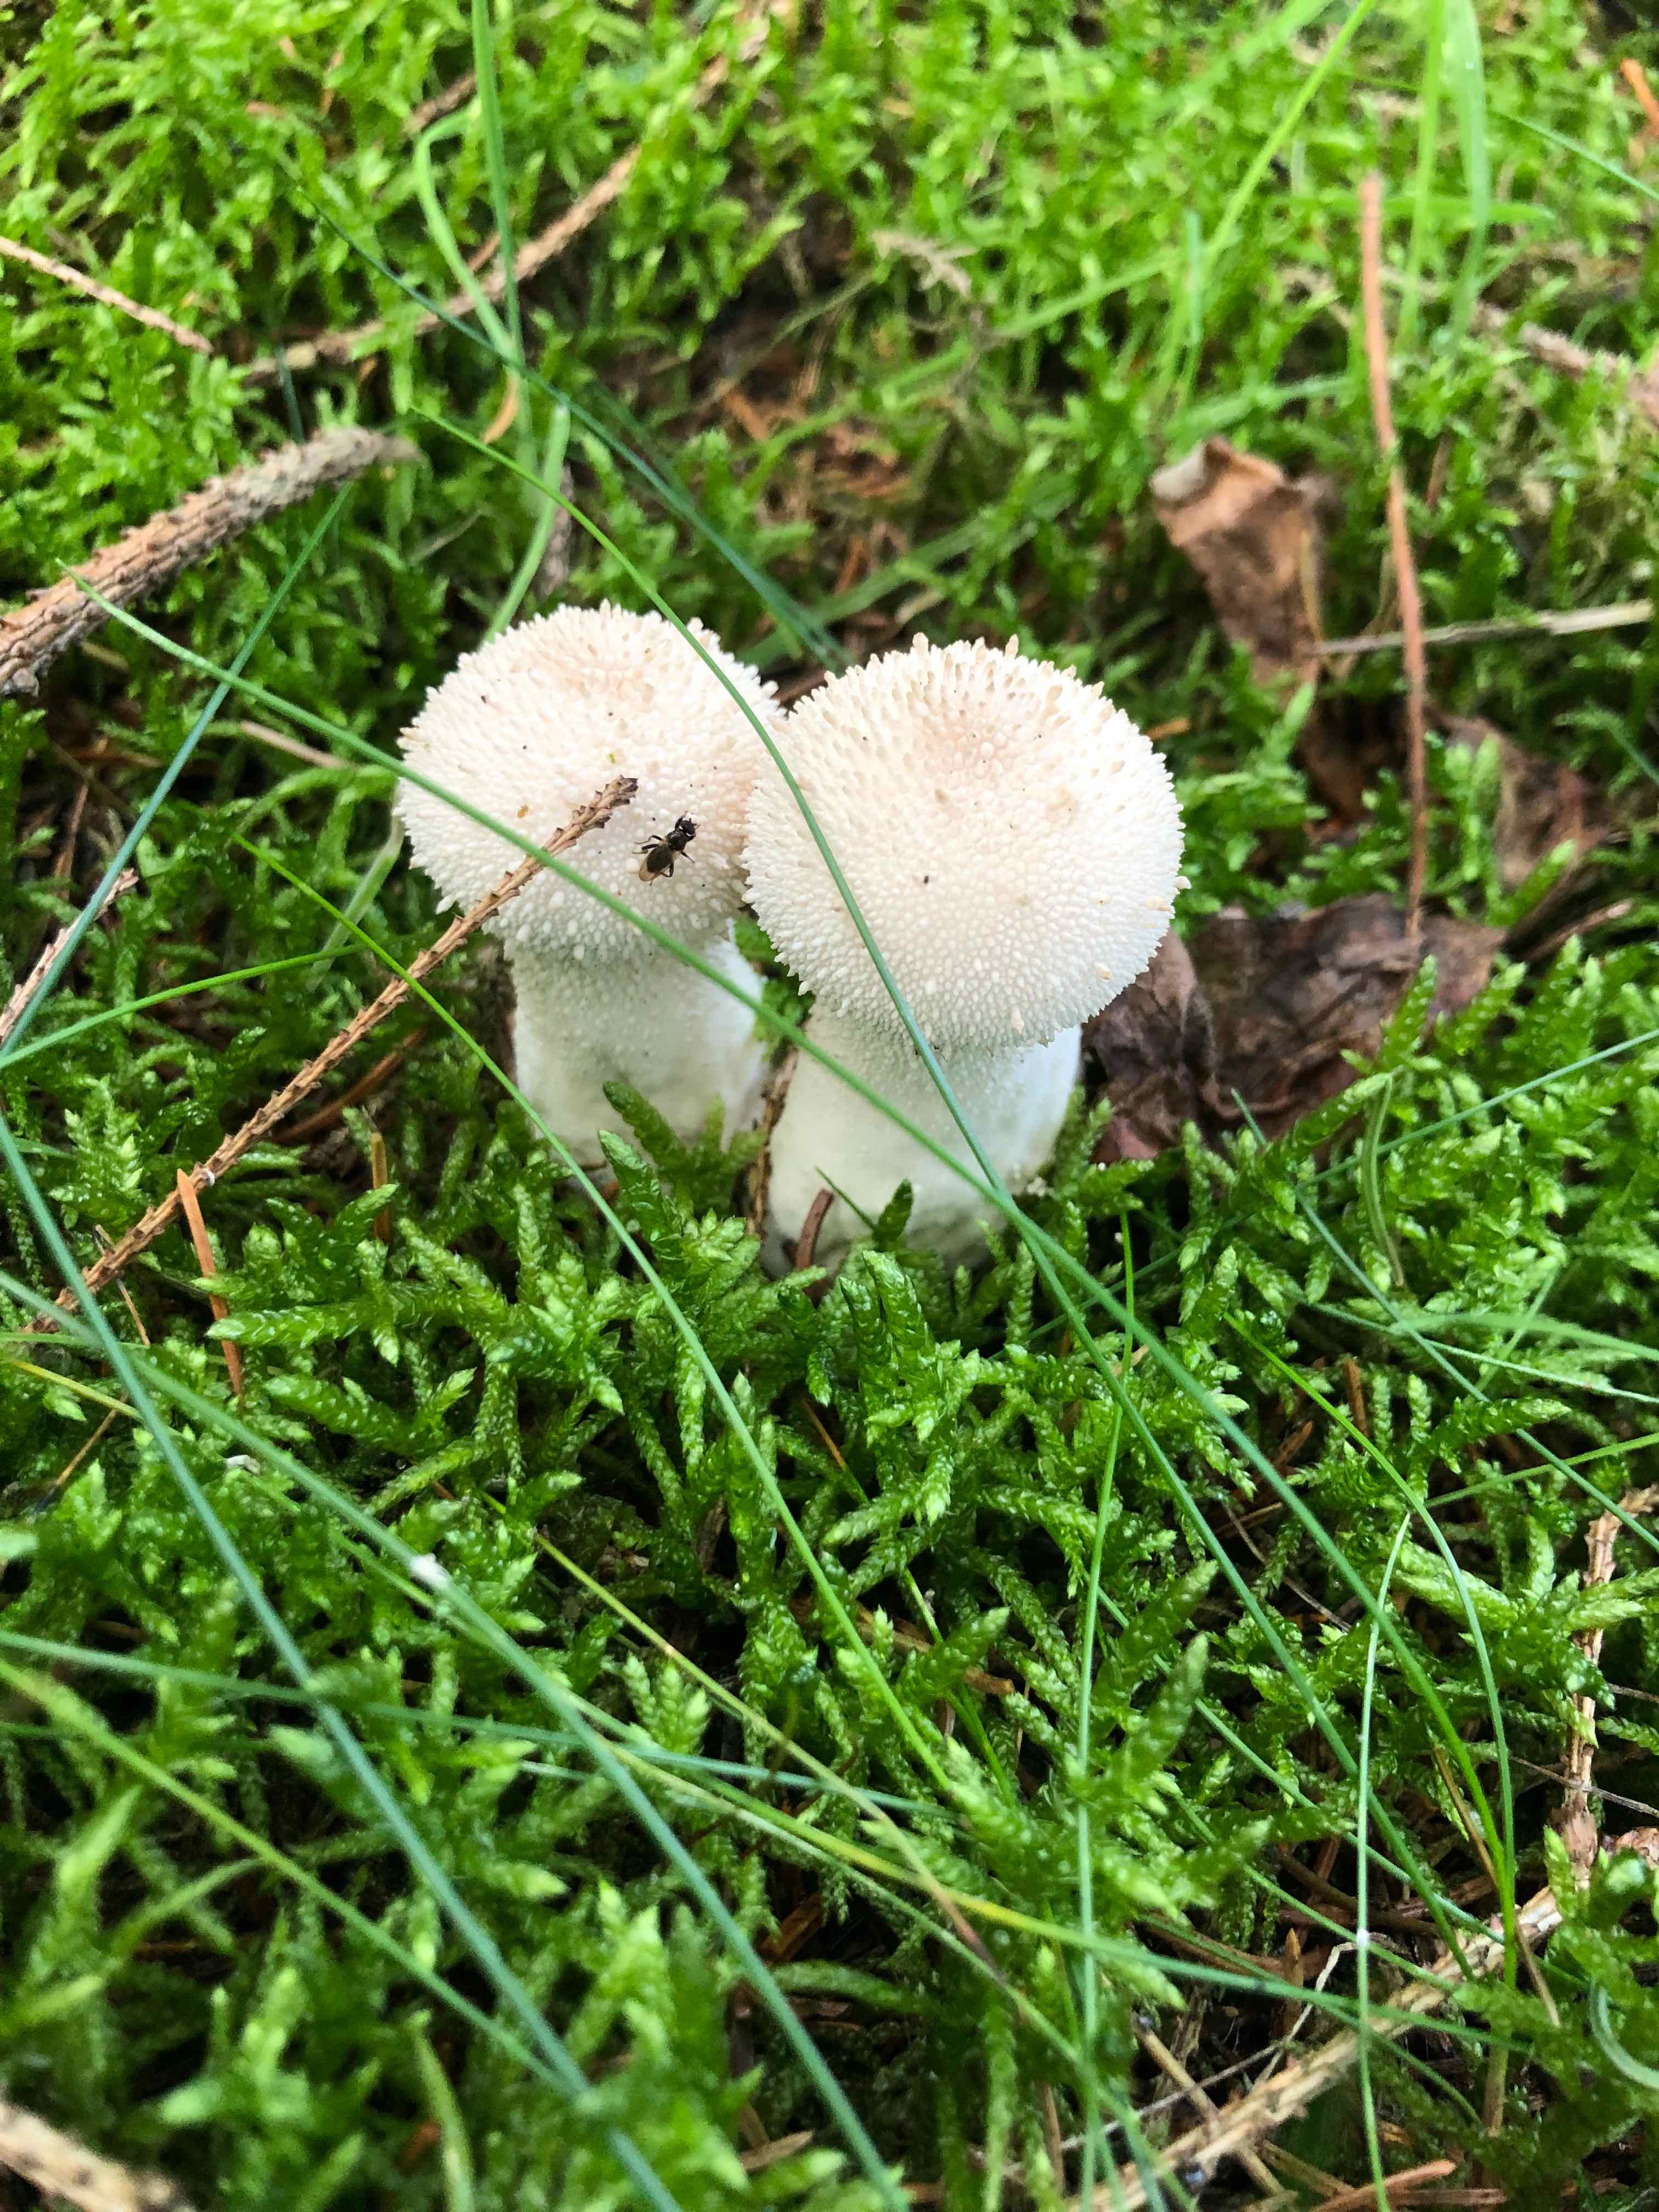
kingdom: Fungi
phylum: Basidiomycota
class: Agaricomycetes
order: Agaricales
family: Lycoperdaceae
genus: Lycoperdon
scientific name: Lycoperdon perlatum
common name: krystal-støvbold
